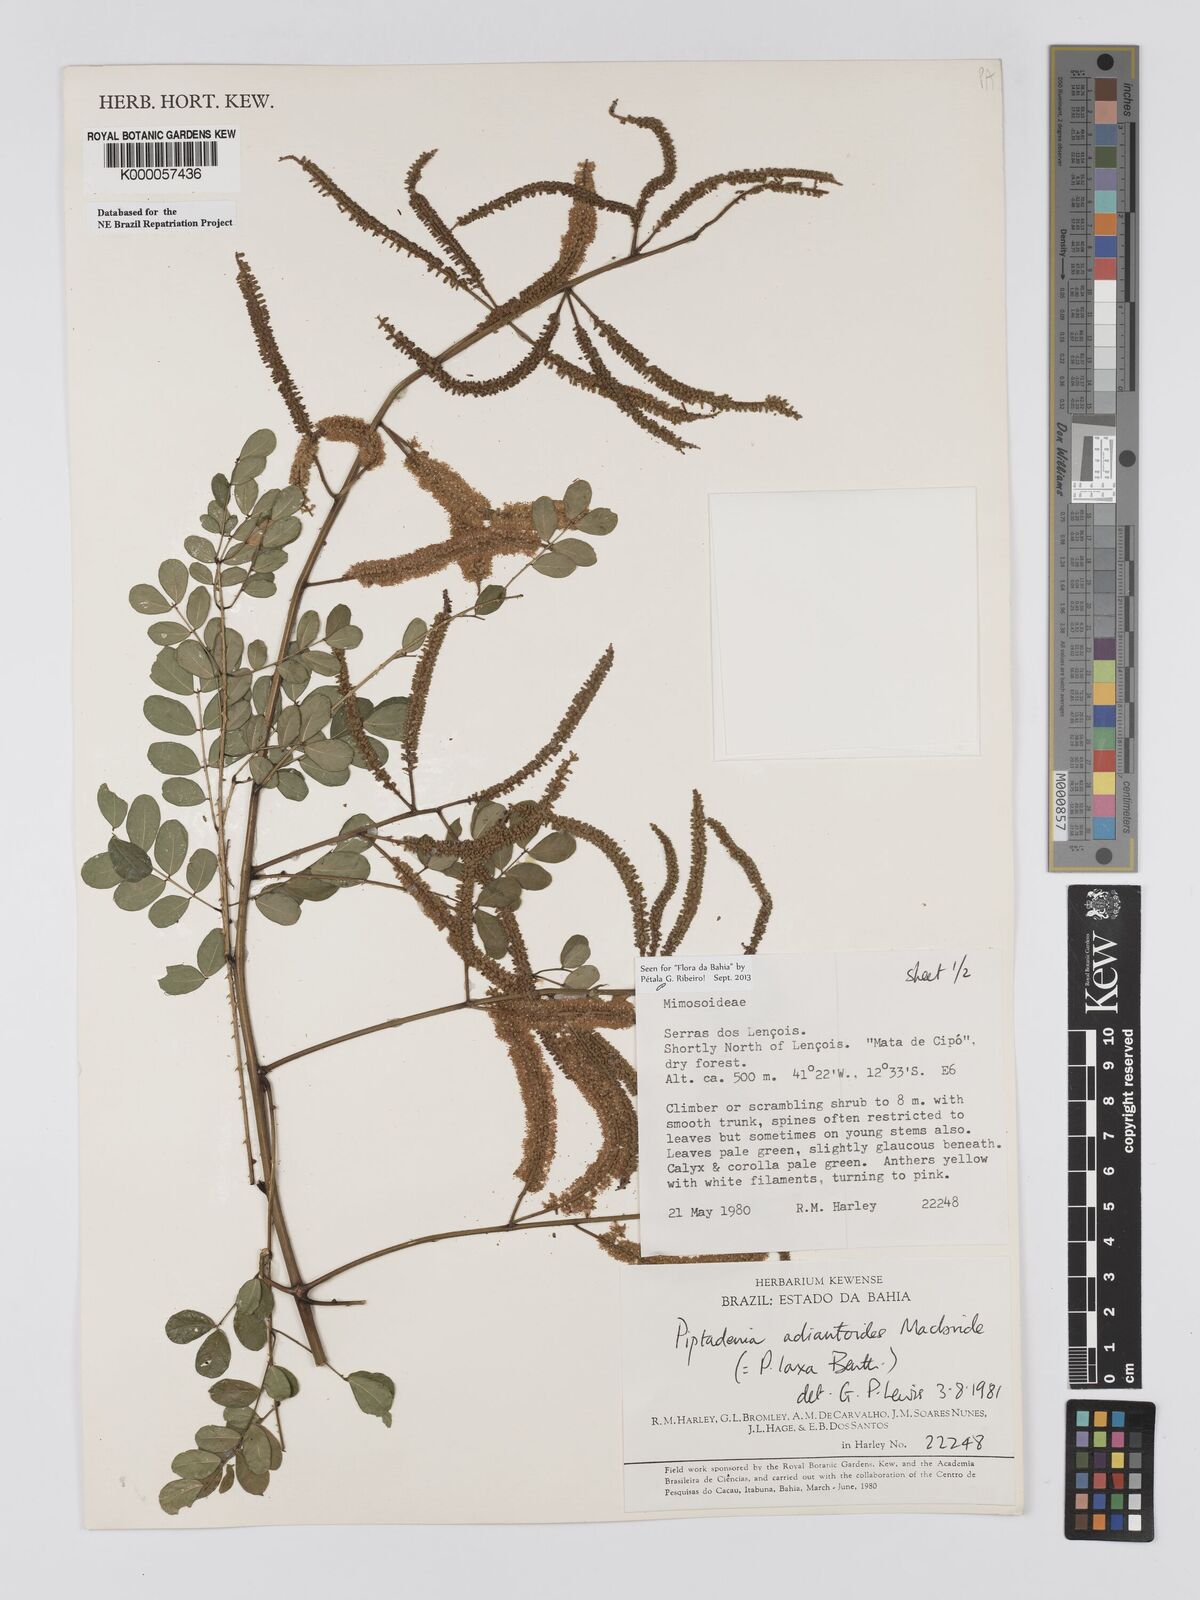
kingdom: Plantae
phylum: Tracheophyta
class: Magnoliopsida
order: Fabales
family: Fabaceae
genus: Piptadenia
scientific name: Piptadenia adiantoides
